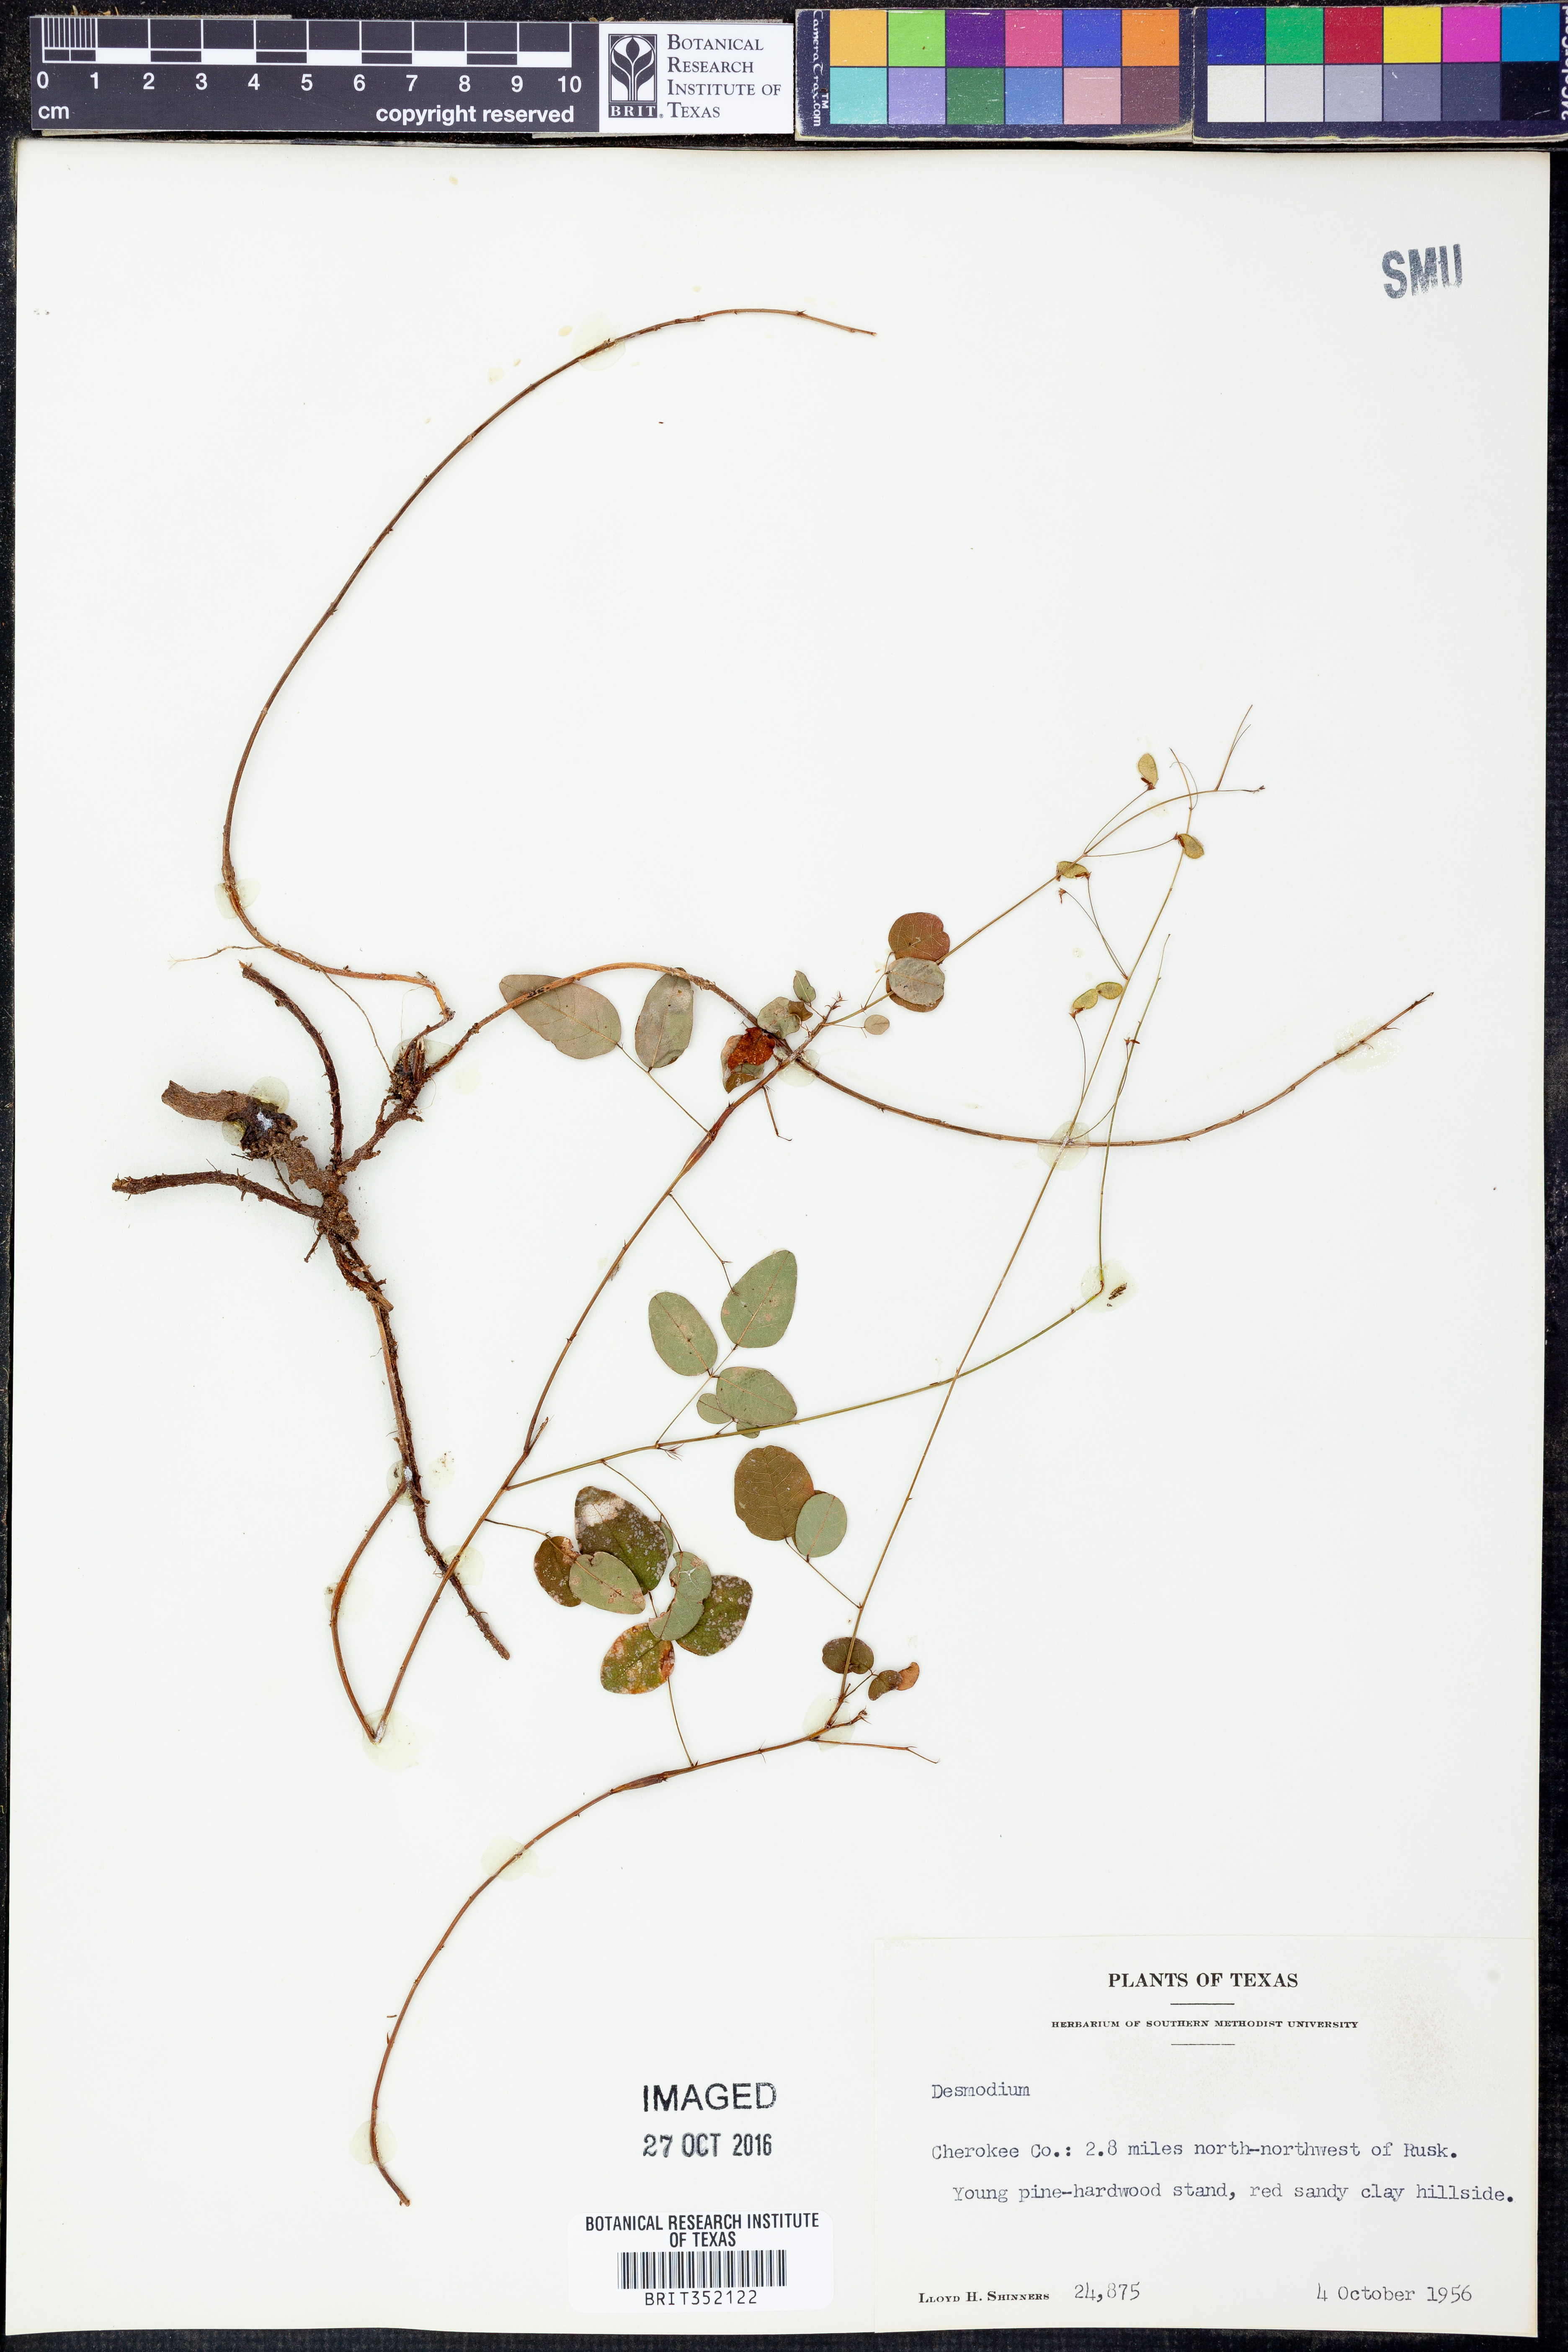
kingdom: Plantae
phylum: Tracheophyta
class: Magnoliopsida
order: Fabales
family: Fabaceae
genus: Desmodium
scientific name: Desmodium
